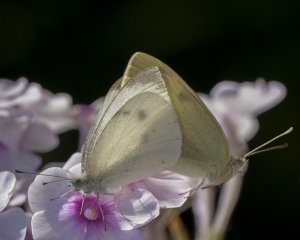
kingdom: Animalia
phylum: Arthropoda
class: Insecta
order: Lepidoptera
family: Pieridae
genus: Pieris
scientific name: Pieris rapae
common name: Cabbage White
